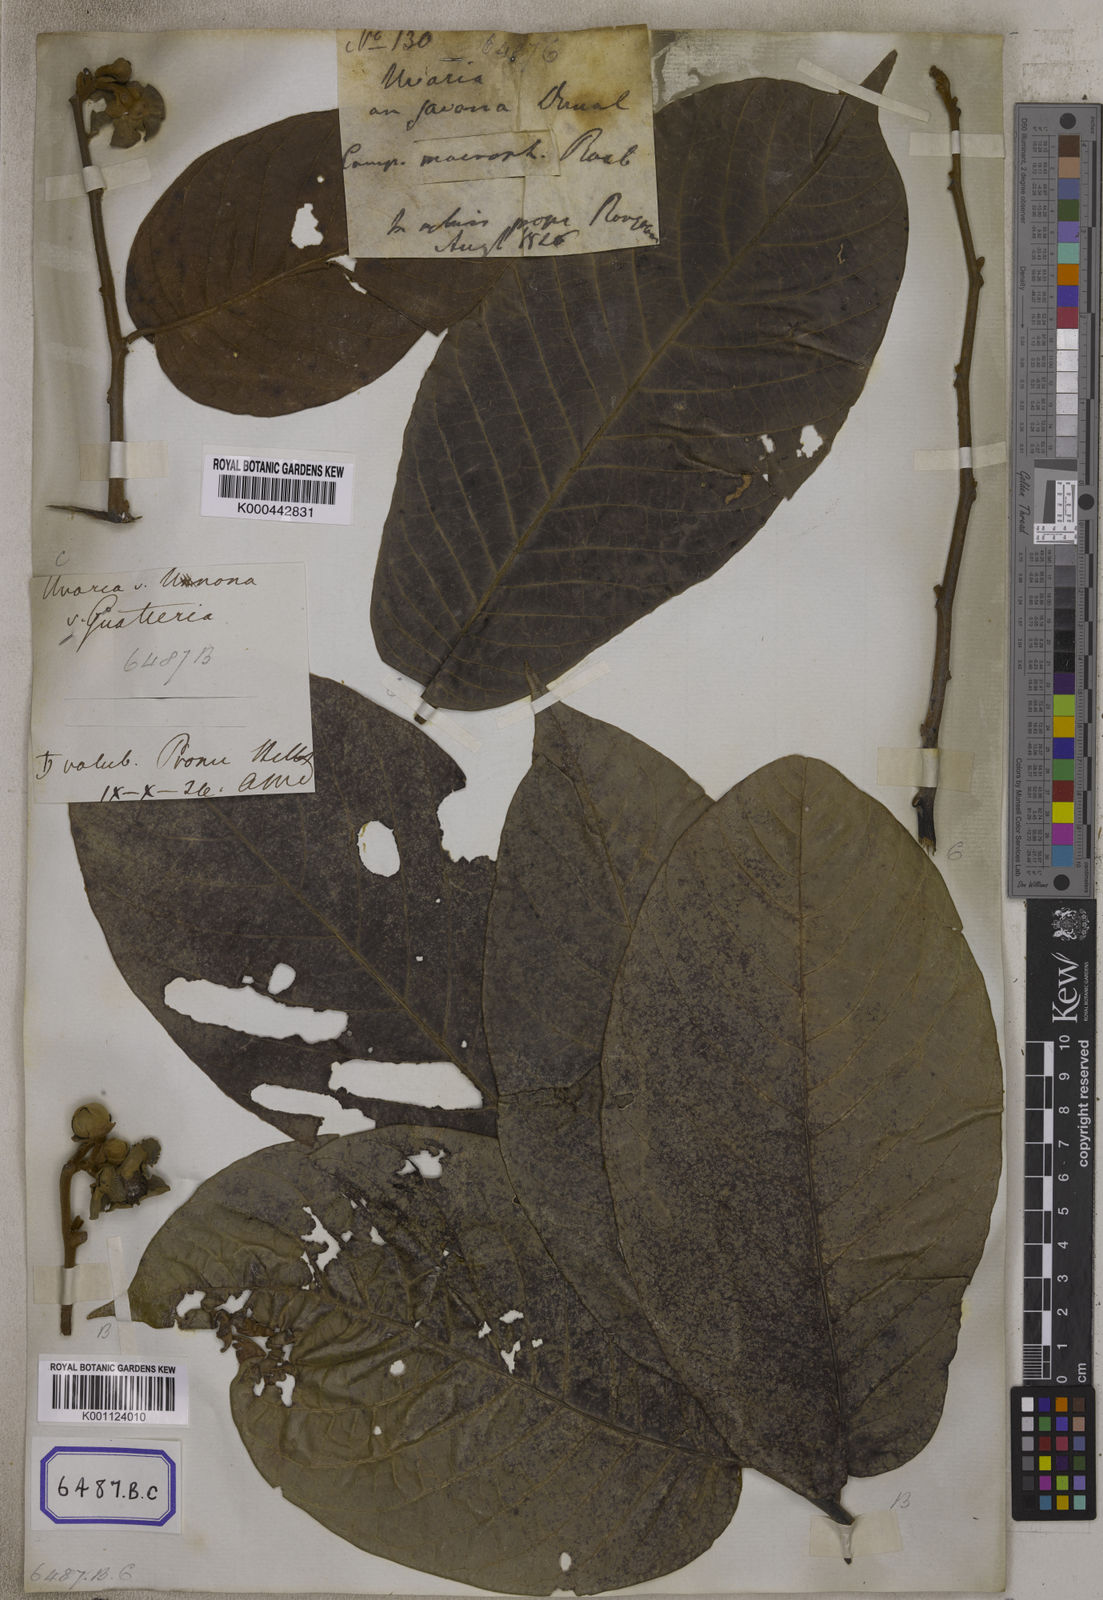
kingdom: Plantae
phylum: Tracheophyta
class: Magnoliopsida
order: Magnoliales
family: Annonaceae
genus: Uvaria
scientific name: Uvaria littoralis
